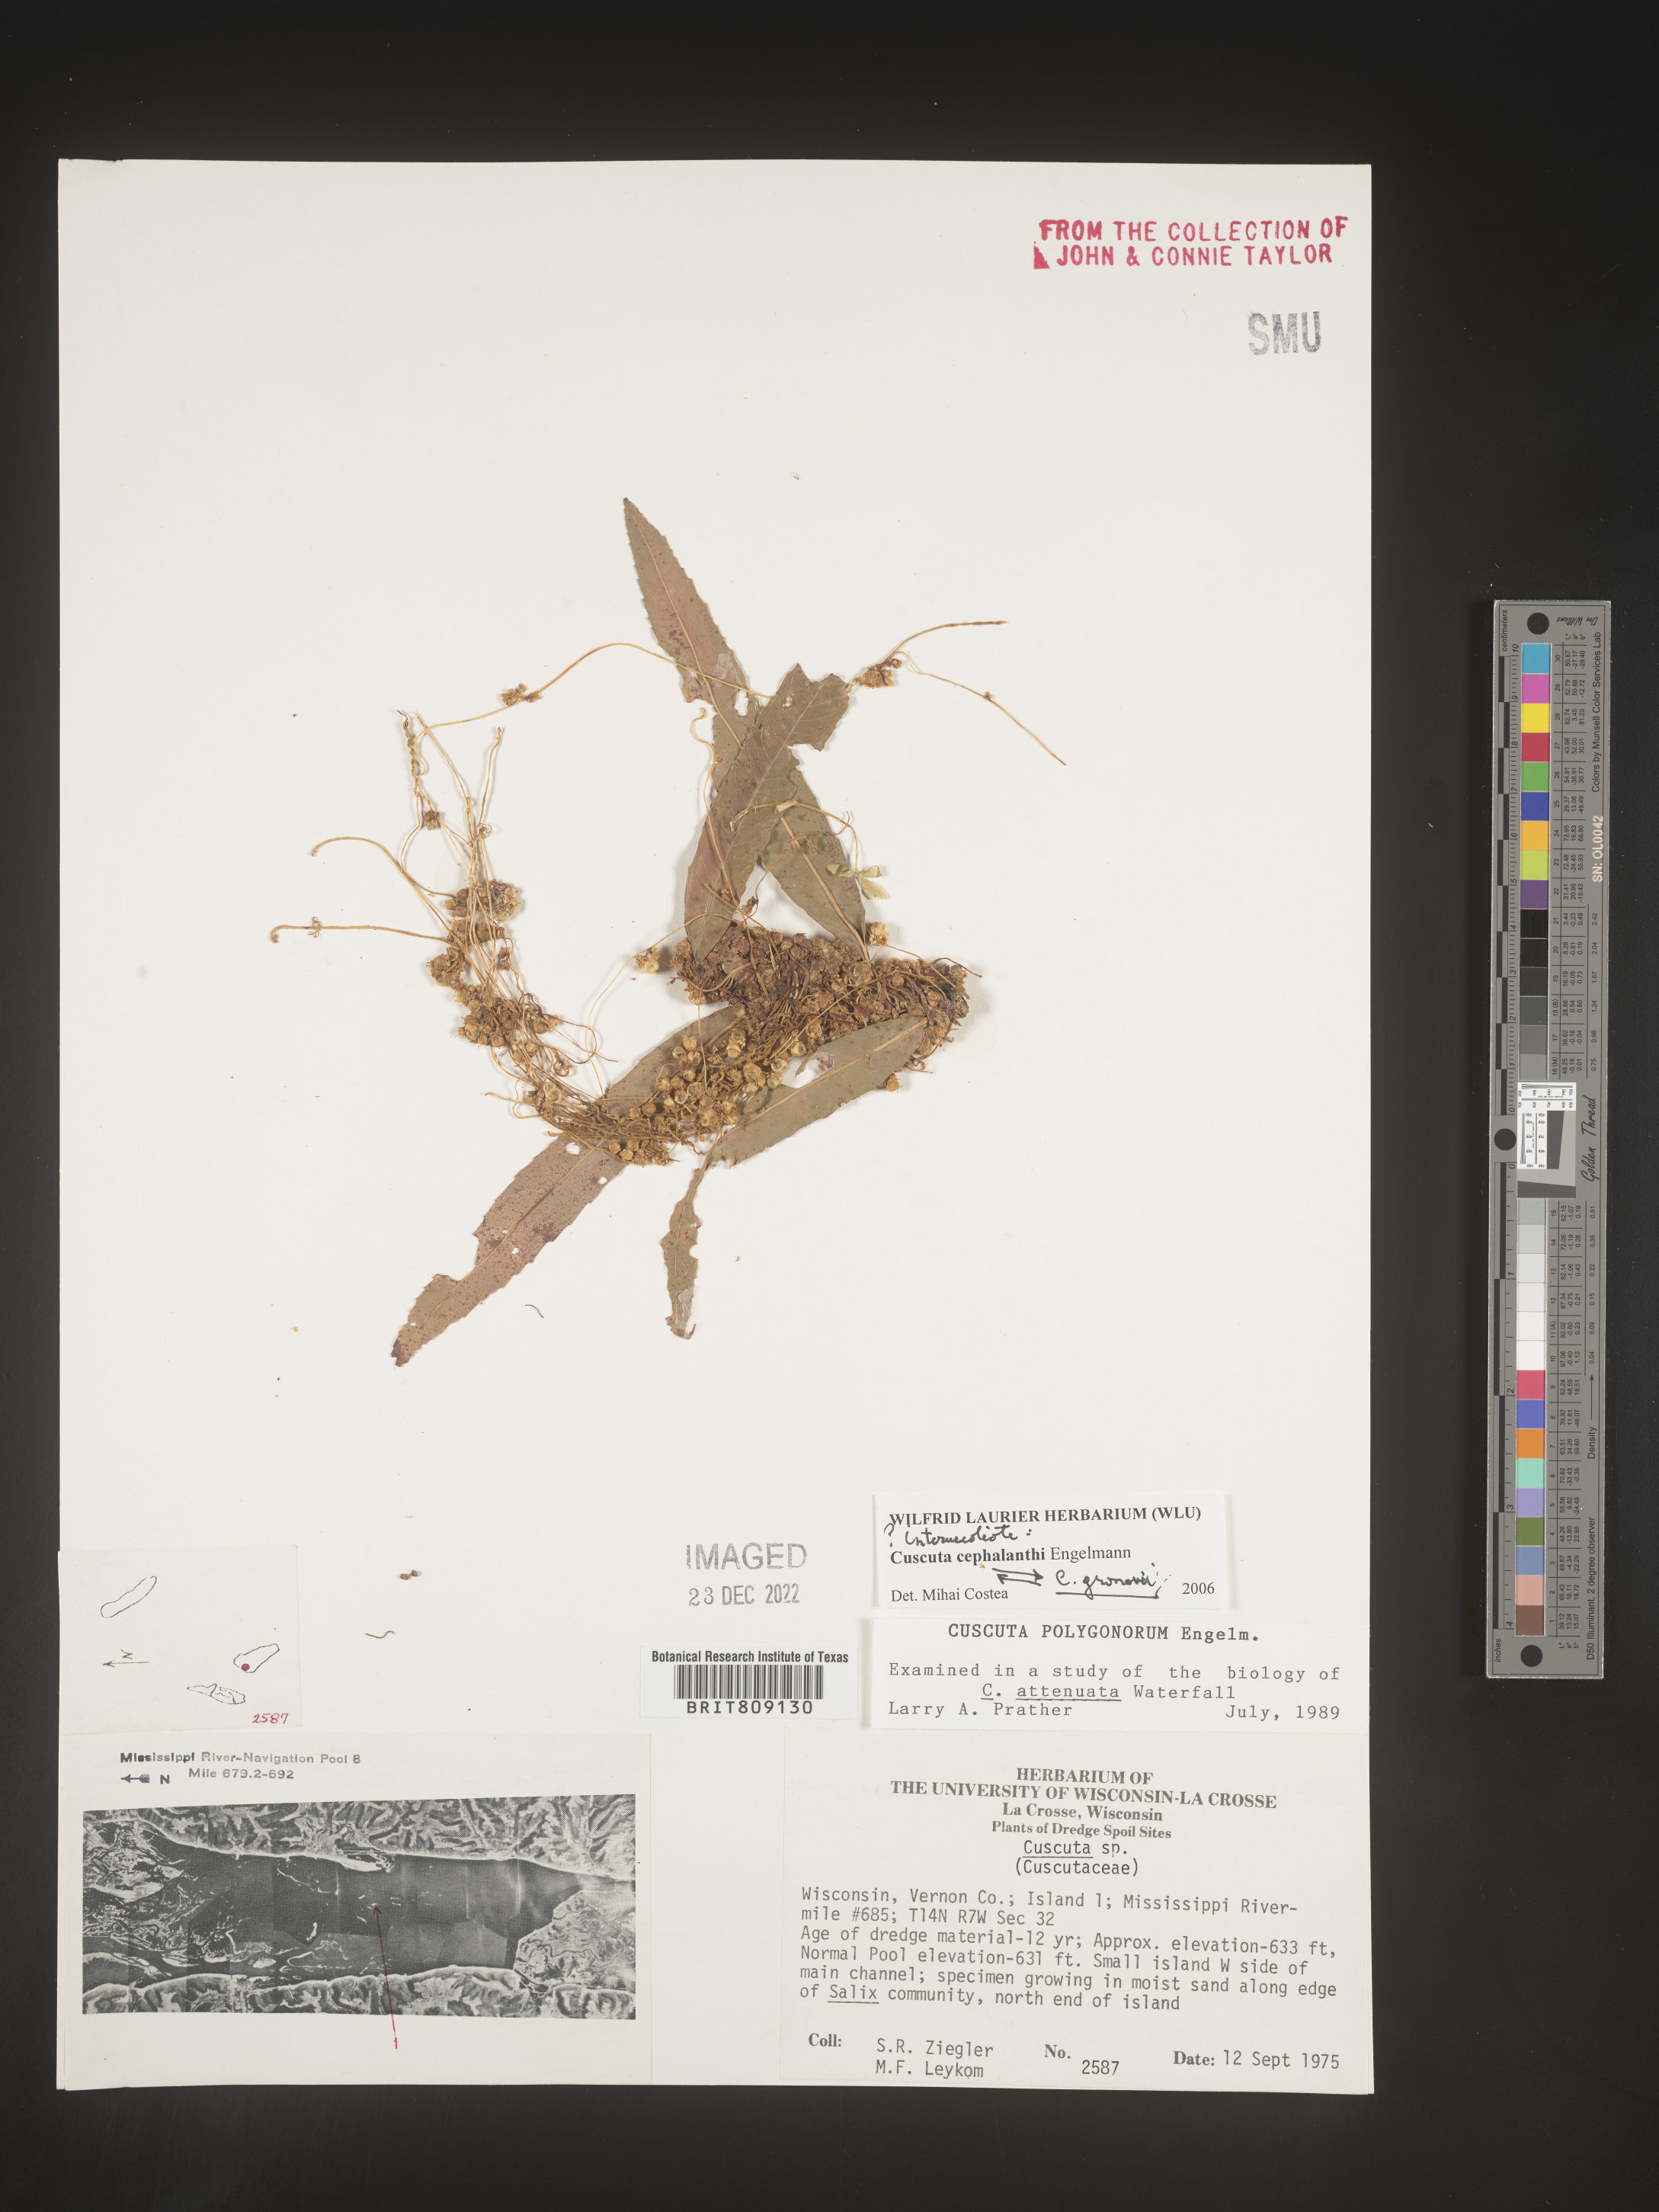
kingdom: Plantae
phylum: Tracheophyta
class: Magnoliopsida
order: Solanales
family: Convolvulaceae
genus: Cuscuta
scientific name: Cuscuta cephalanthi
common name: Button dodder
